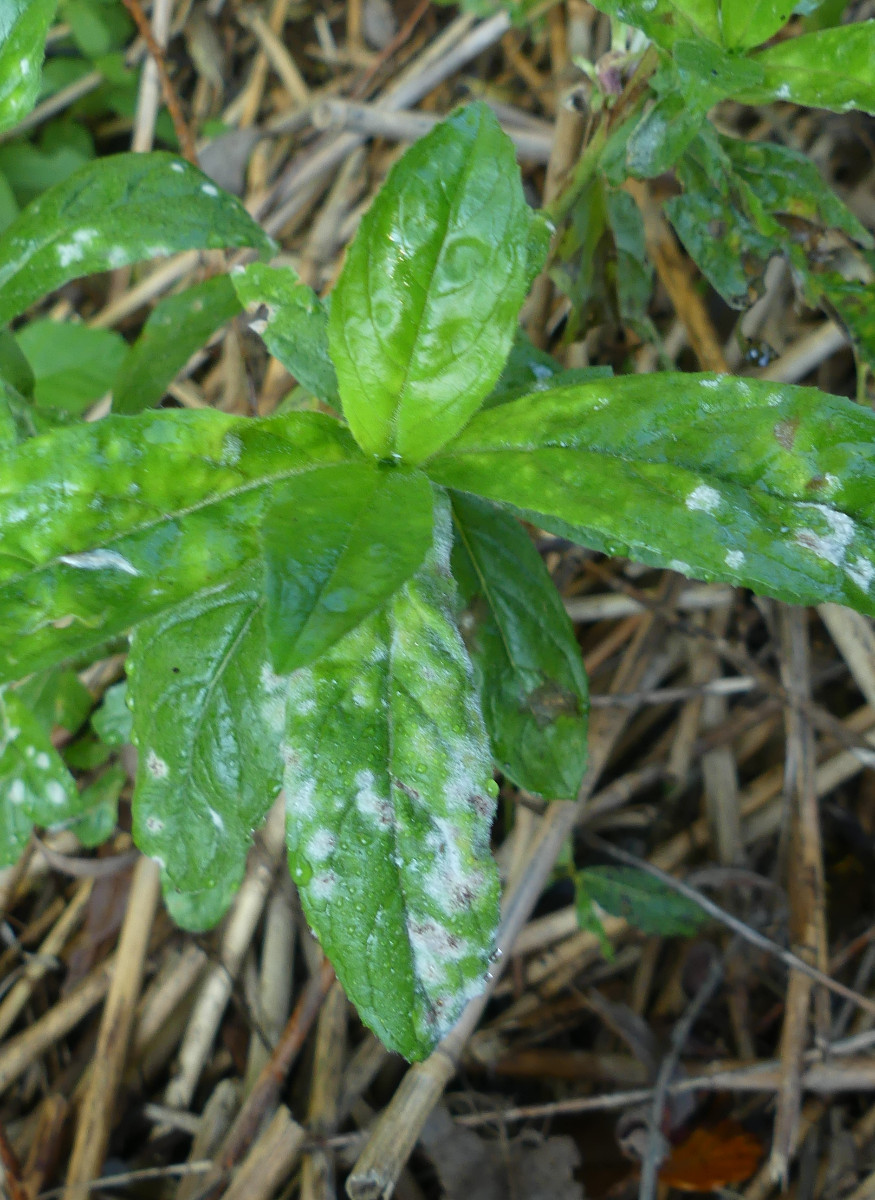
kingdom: Fungi
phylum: Ascomycota
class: Leotiomycetes
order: Helotiales
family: Erysiphaceae
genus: Podosphaera
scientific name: Podosphaera epilobii
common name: dueurt-meldug
